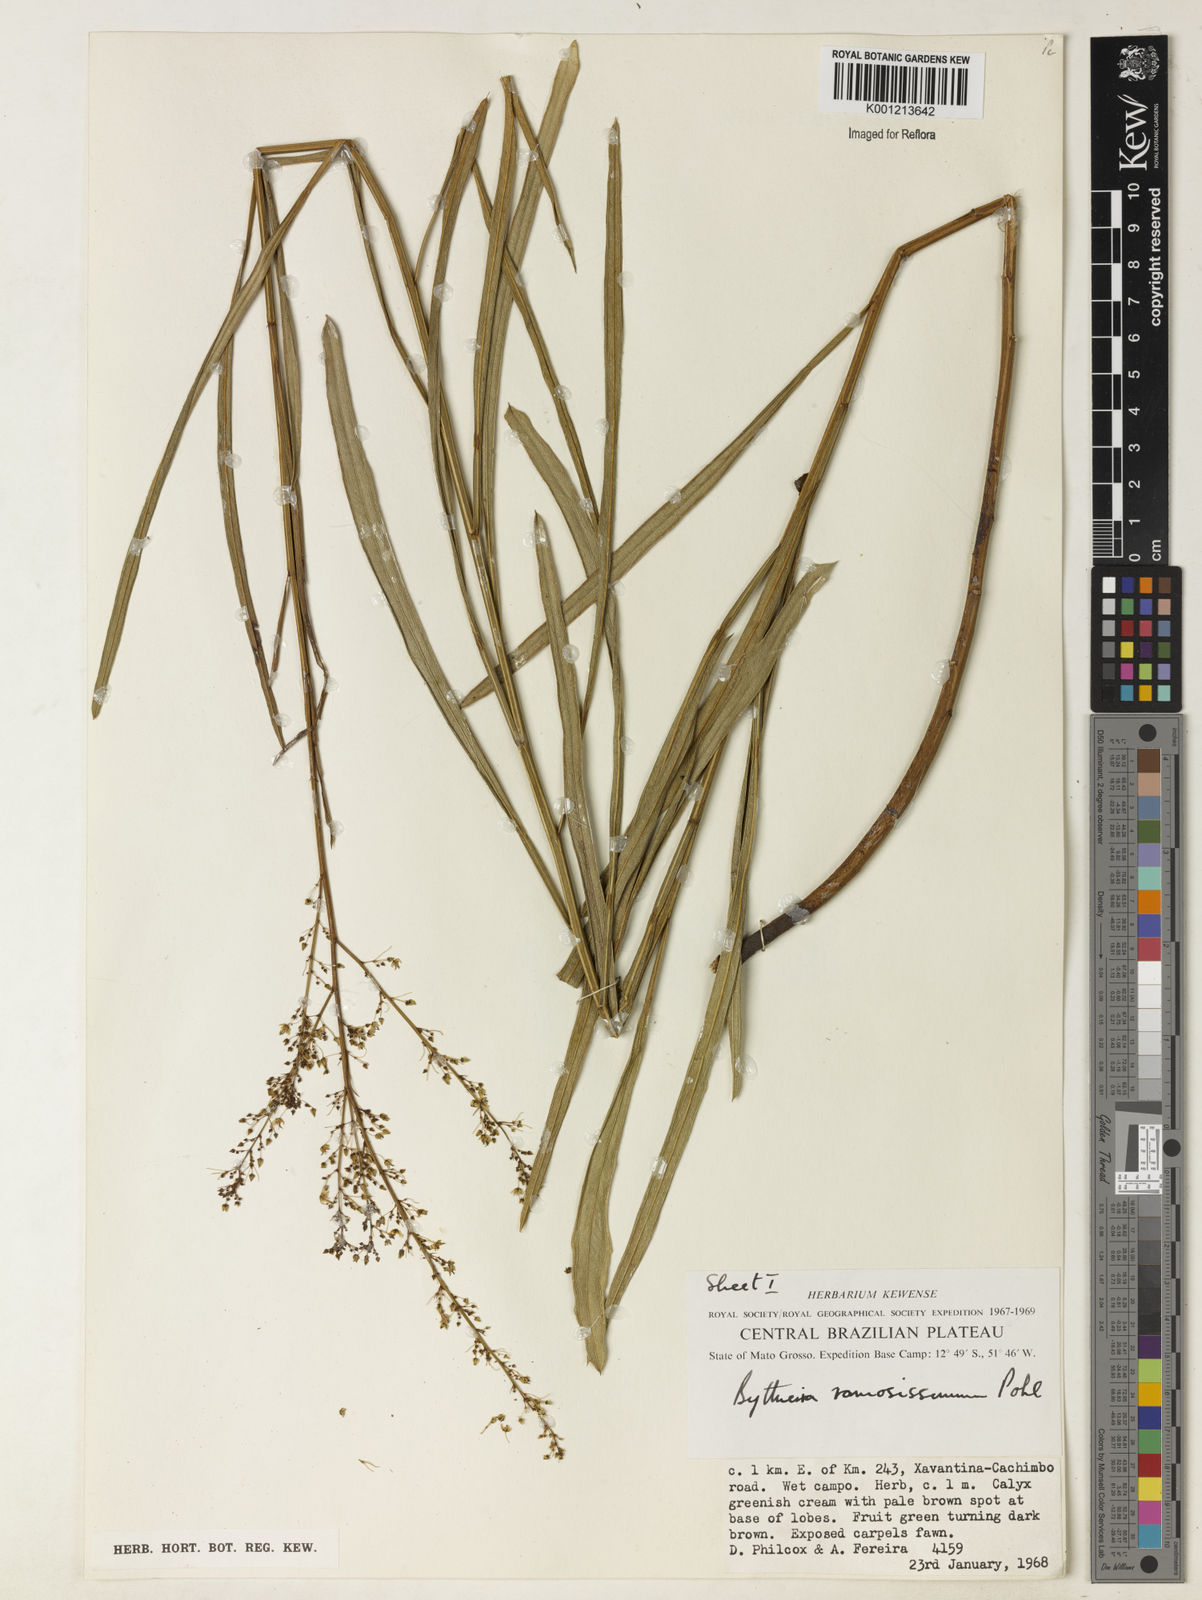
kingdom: Plantae
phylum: Tracheophyta
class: Magnoliopsida
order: Malvales
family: Malvaceae
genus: Byttneria
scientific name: Byttneria ramosissima
